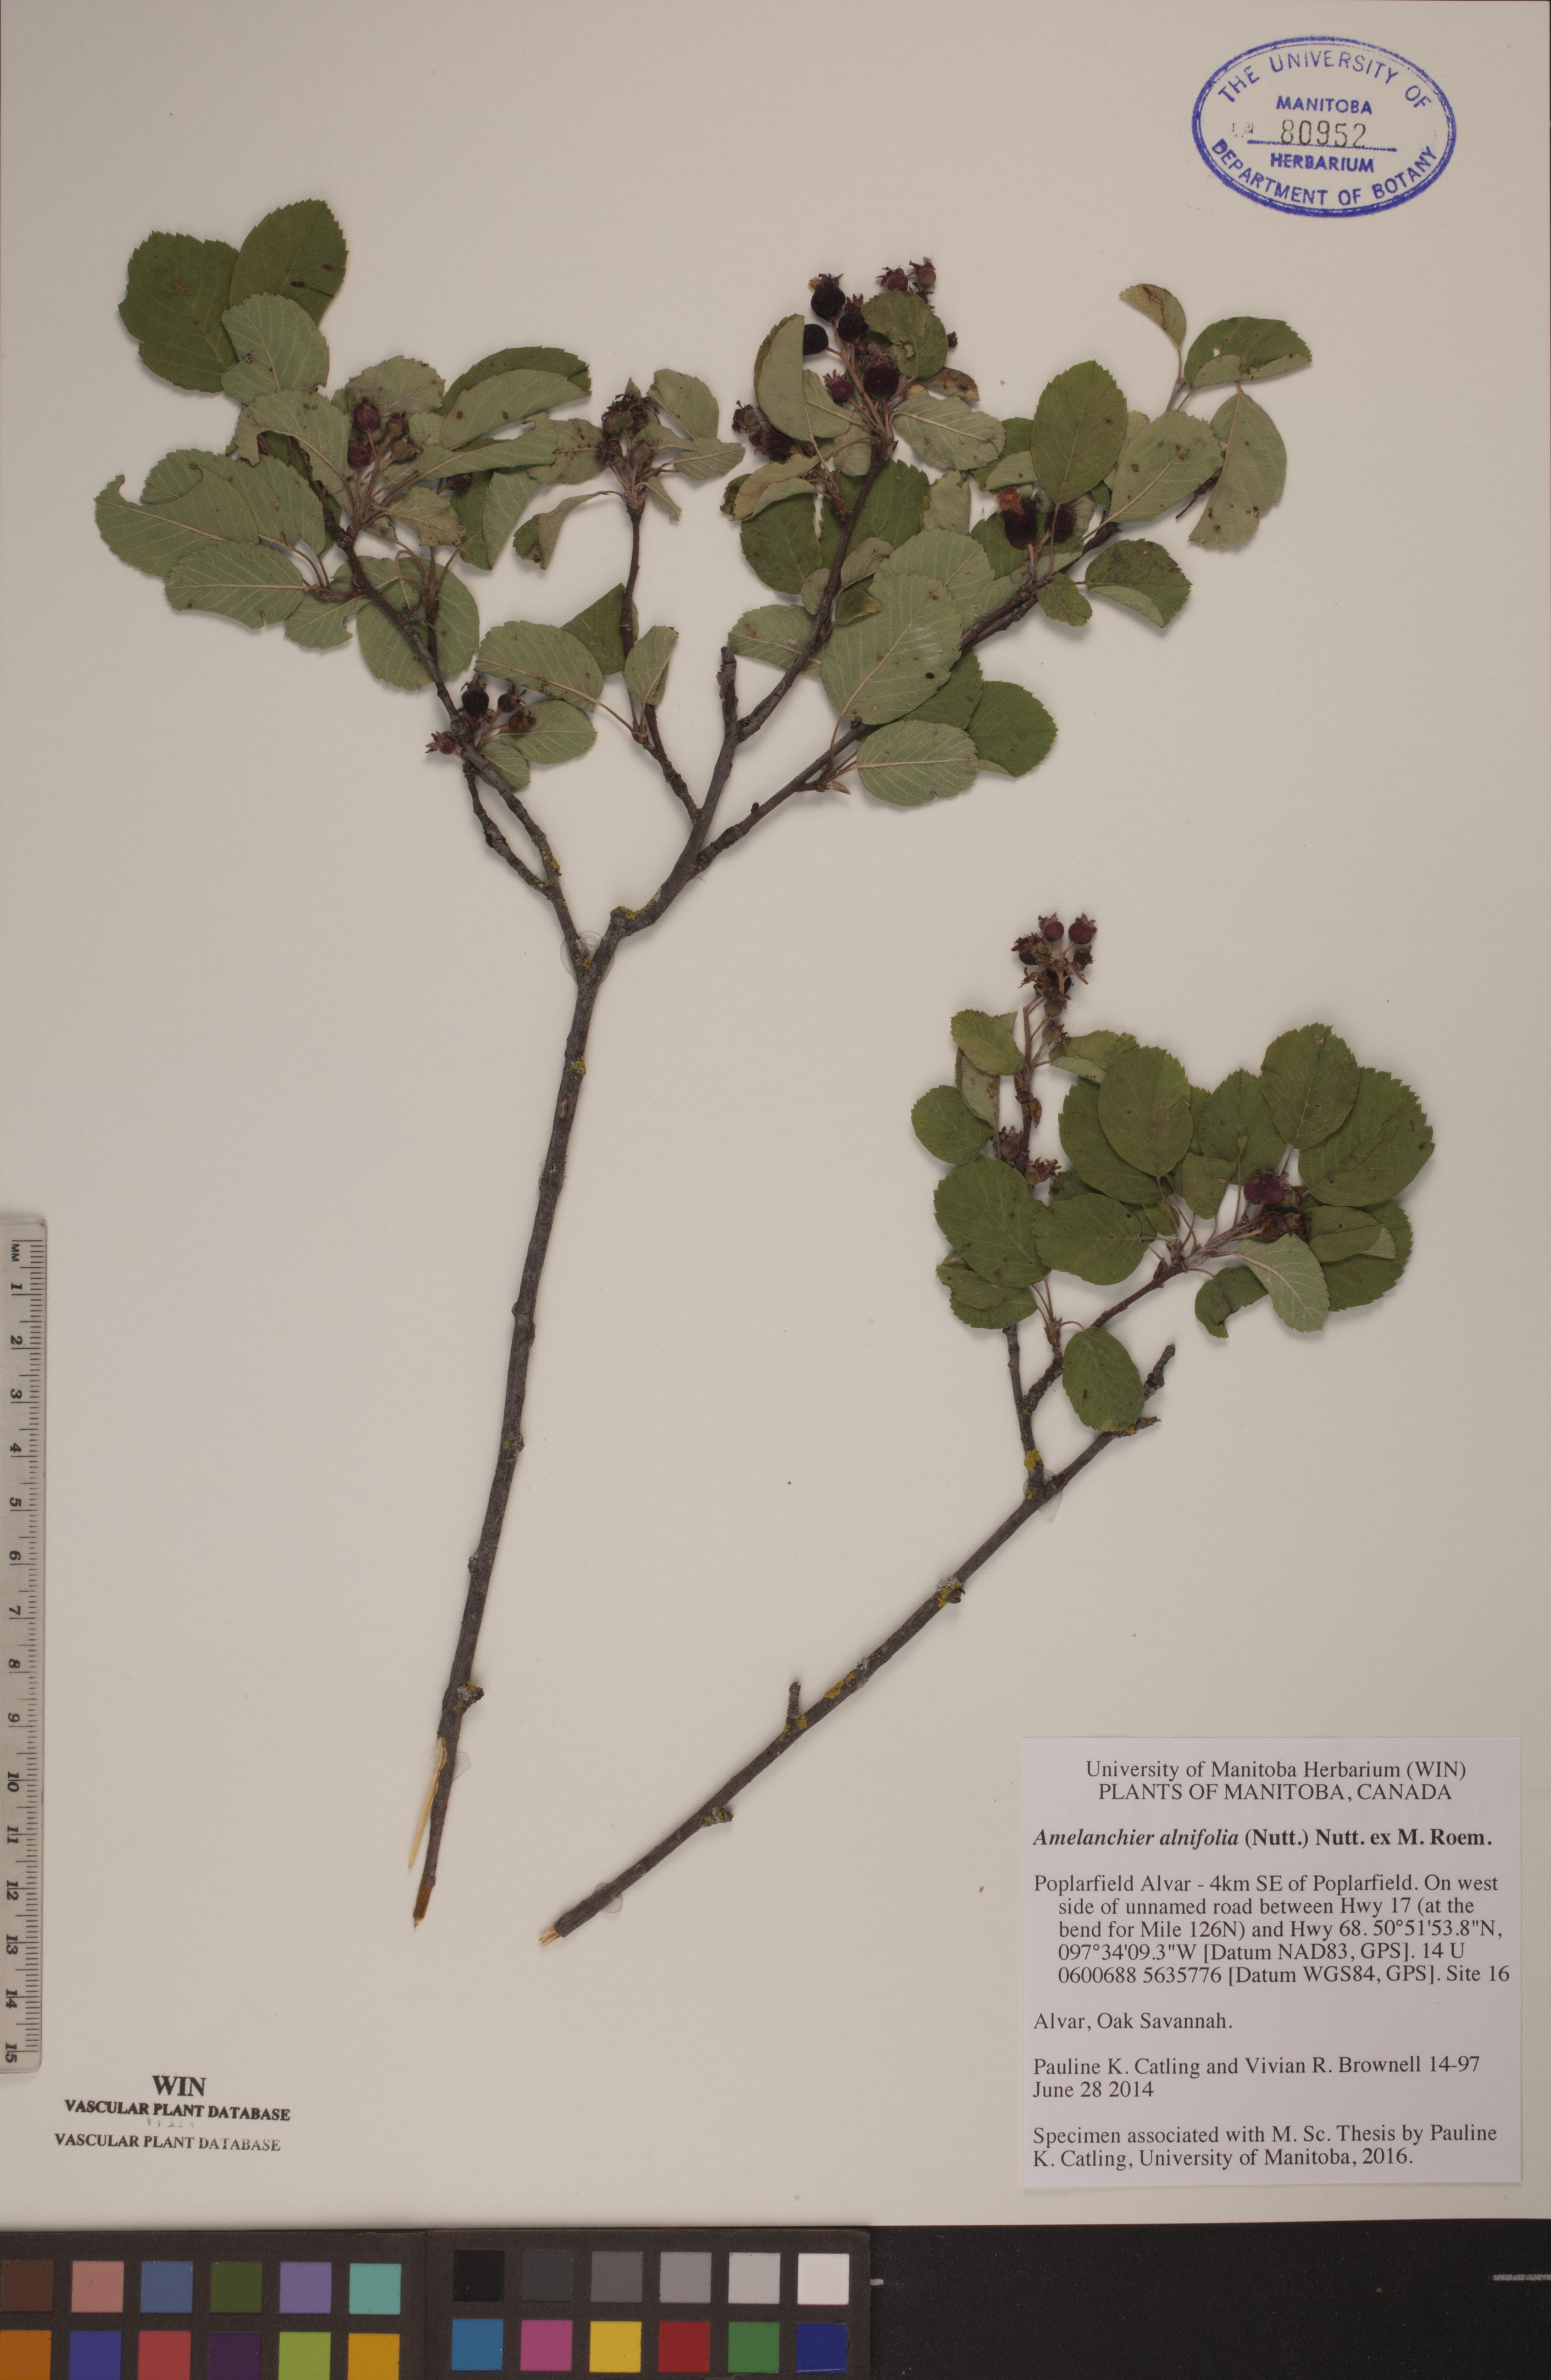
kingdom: Plantae
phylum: Tracheophyta
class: Magnoliopsida
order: Rosales
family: Rosaceae
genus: Amelanchier
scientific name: Amelanchier alnifolia
